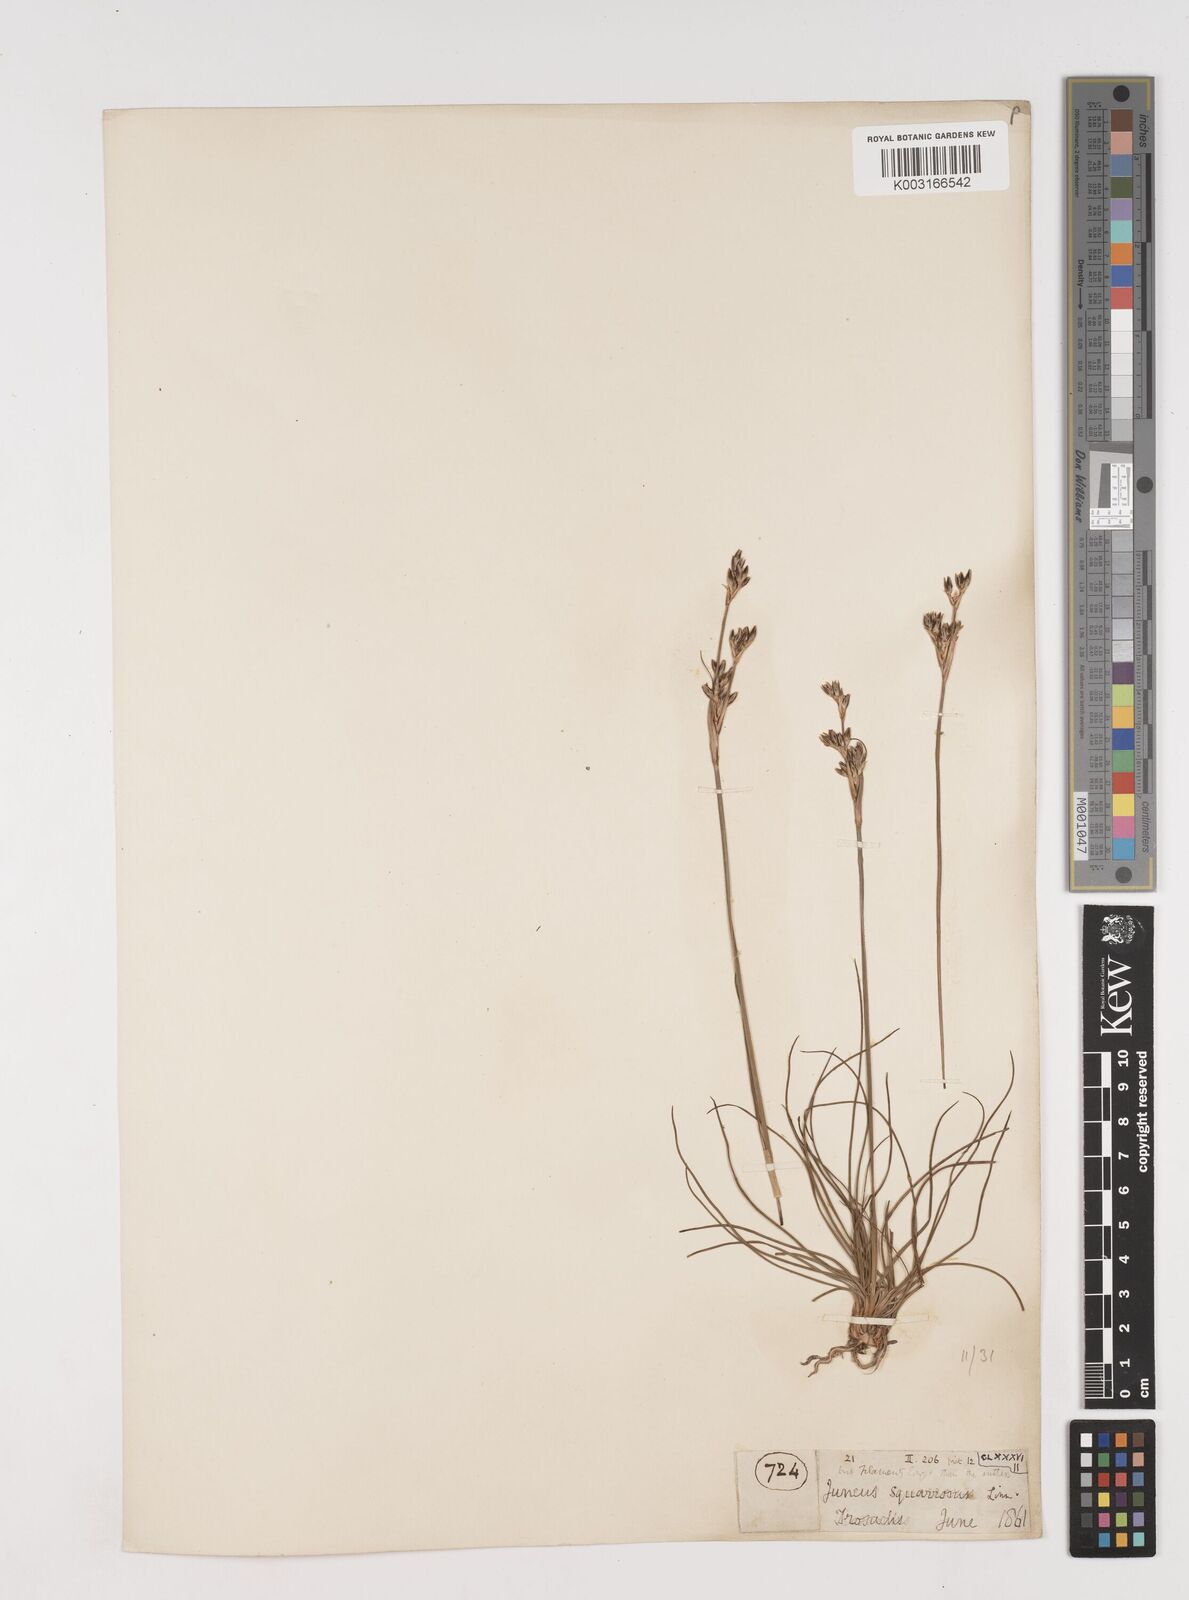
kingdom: Plantae
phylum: Tracheophyta
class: Liliopsida
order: Poales
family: Juncaceae
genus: Juncus
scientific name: Juncus squarrosus
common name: Heath rush
